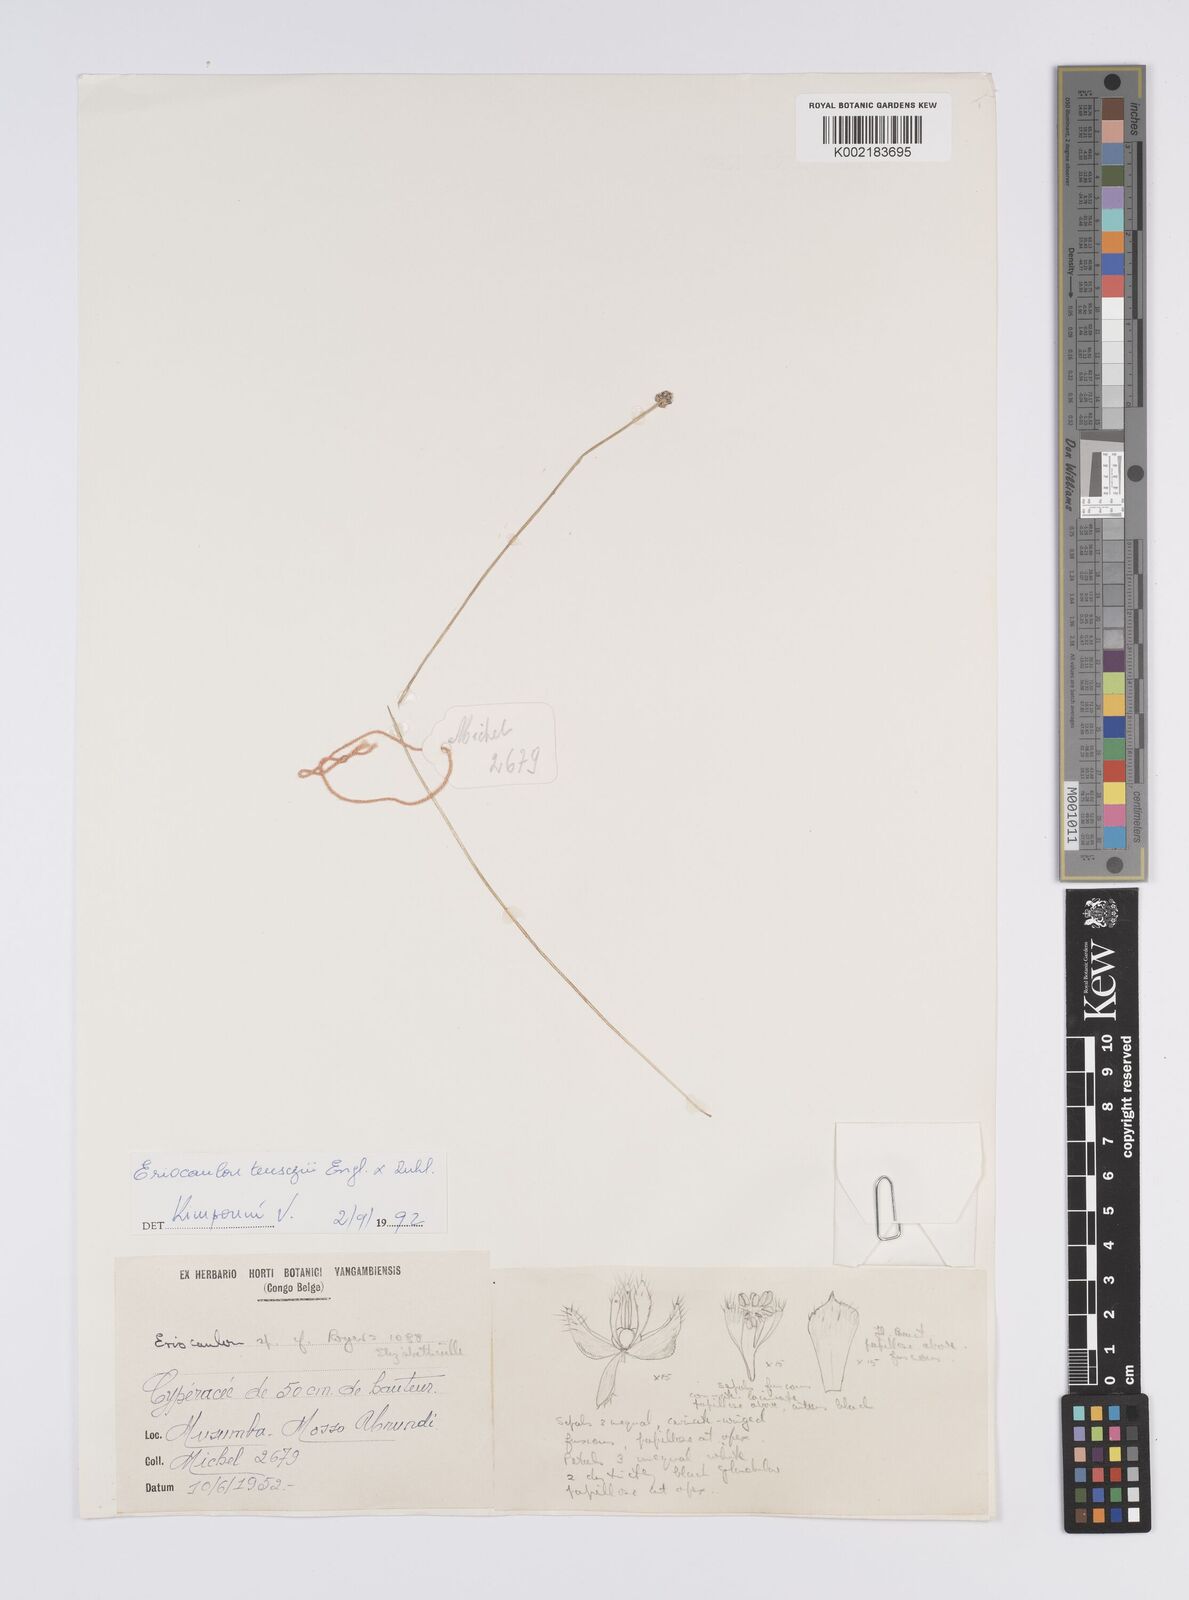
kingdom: Plantae
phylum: Tracheophyta
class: Liliopsida
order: Poales
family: Eriocaulaceae
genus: Eriocaulon
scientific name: Eriocaulon teusczii
